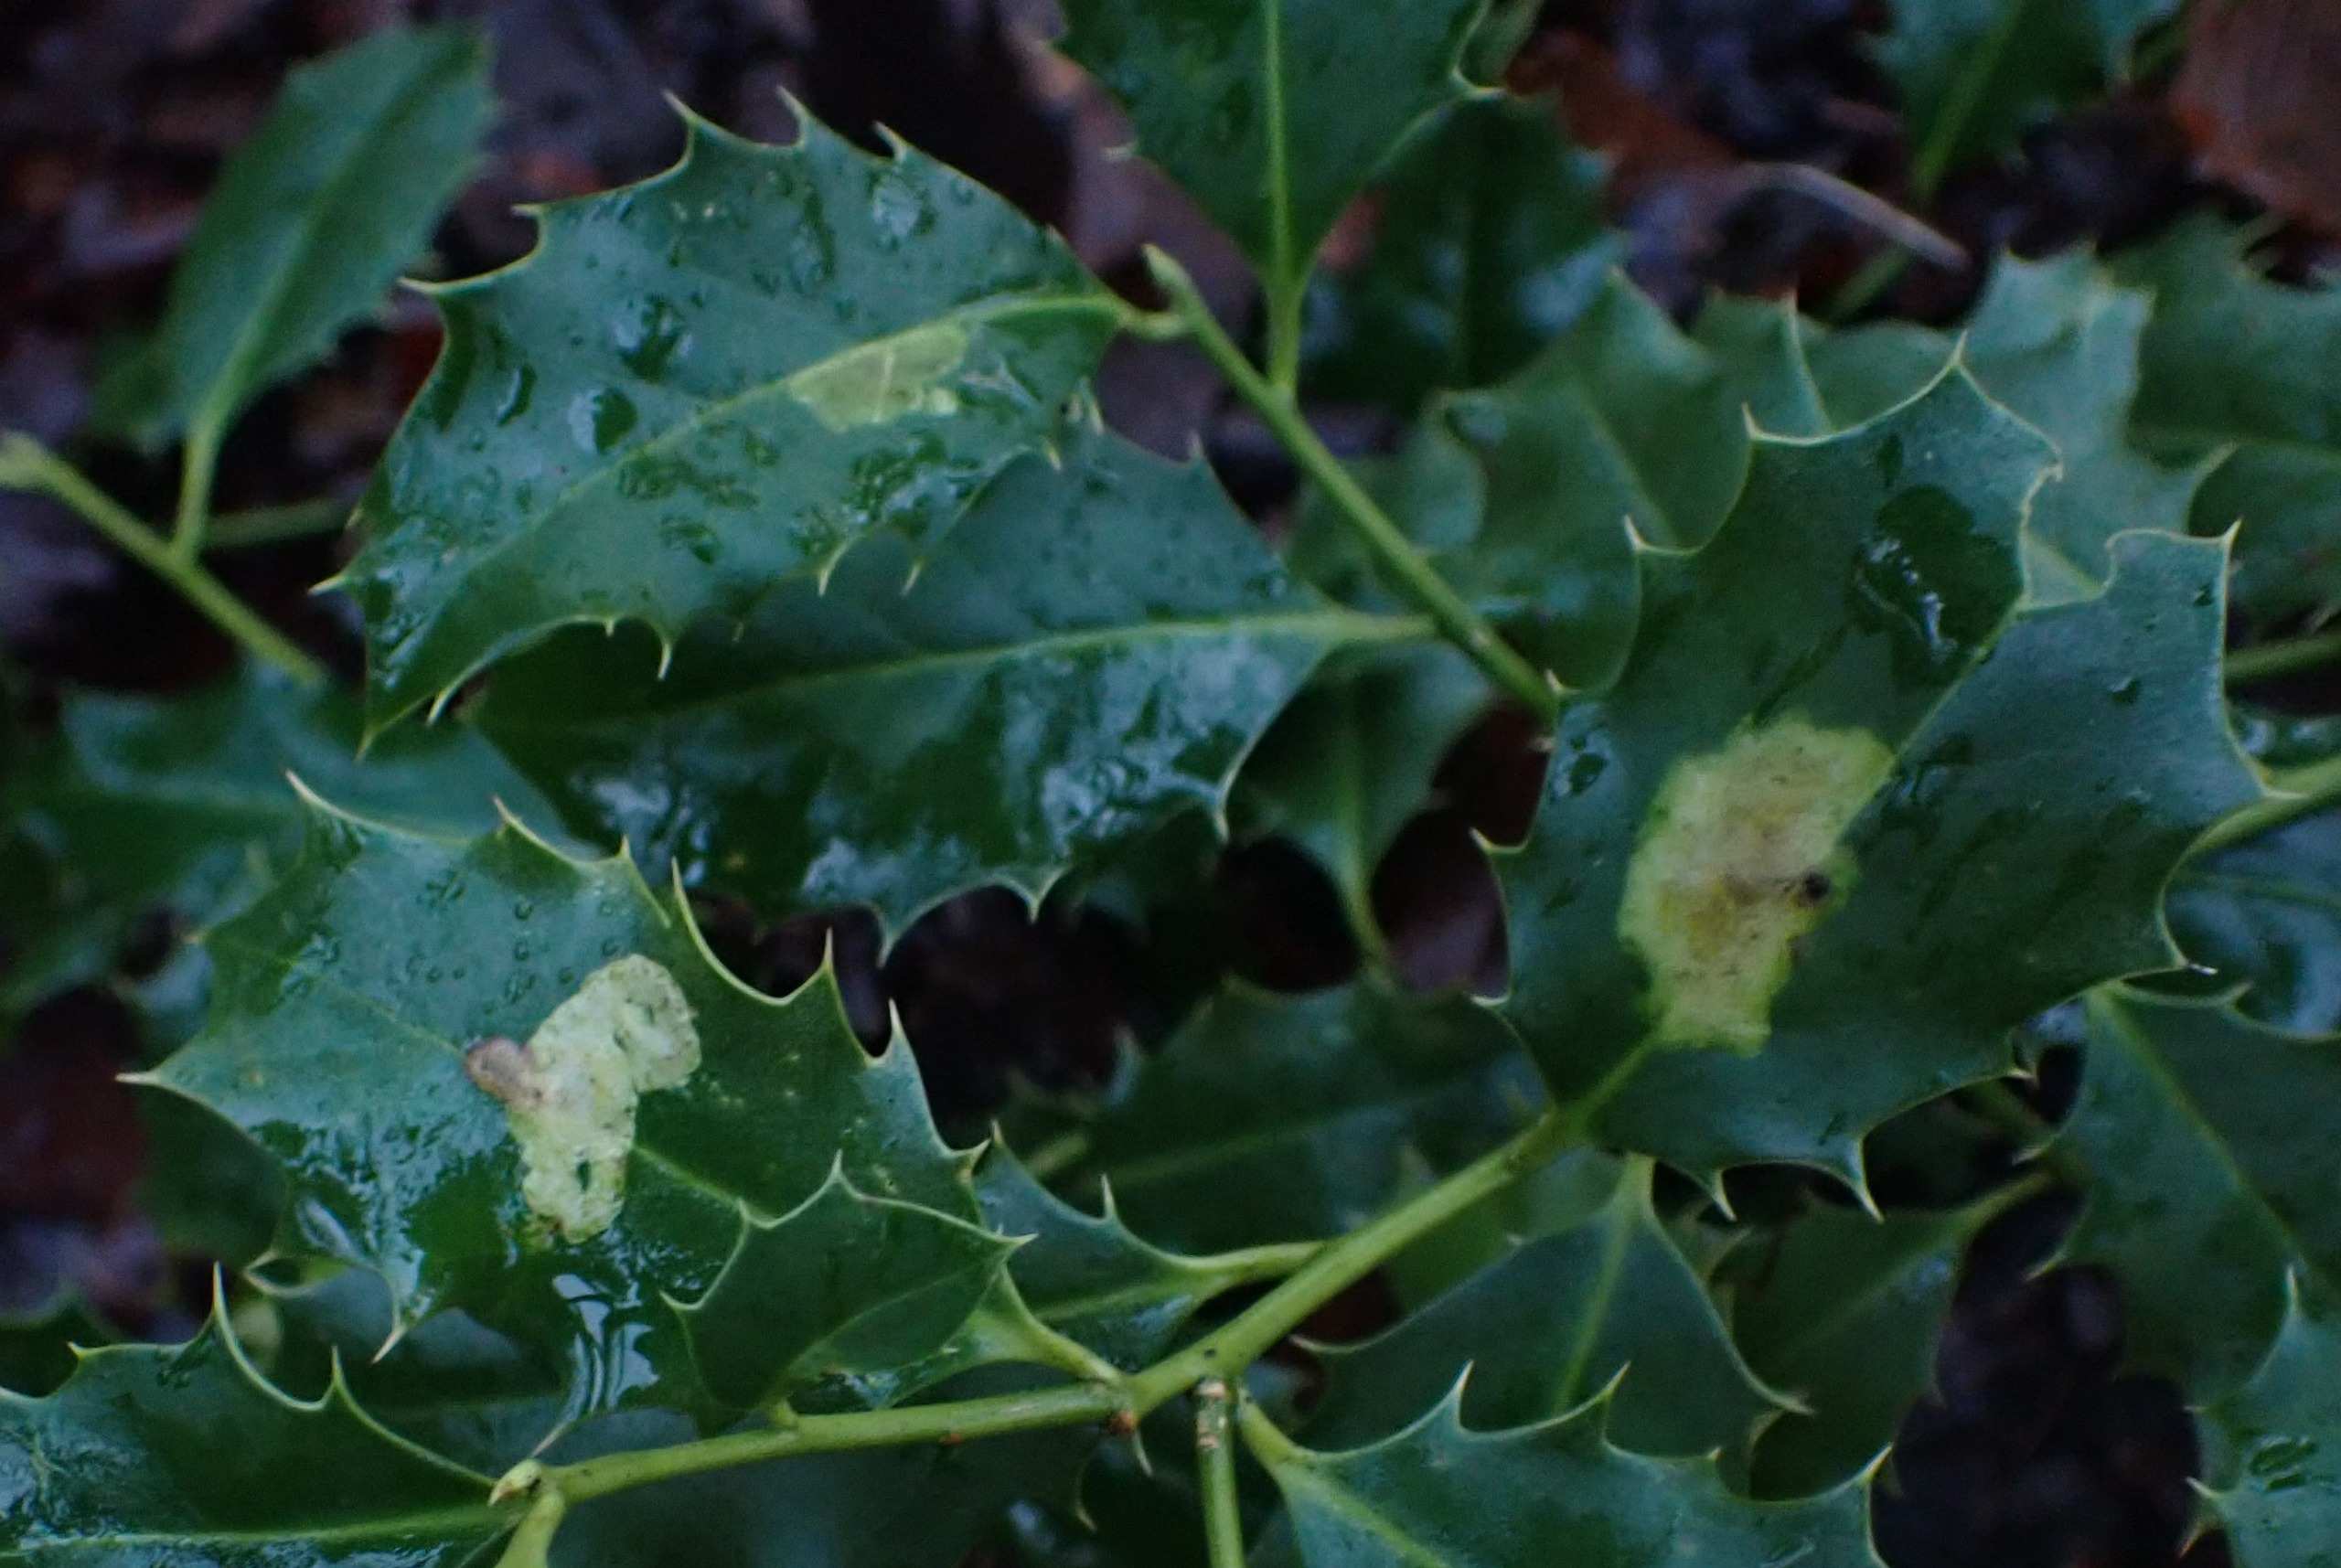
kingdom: Animalia
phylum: Arthropoda
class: Insecta
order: Diptera
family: Agromyzidae
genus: Phytomyza
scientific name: Phytomyza ilicis
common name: Kristtornminérflue
